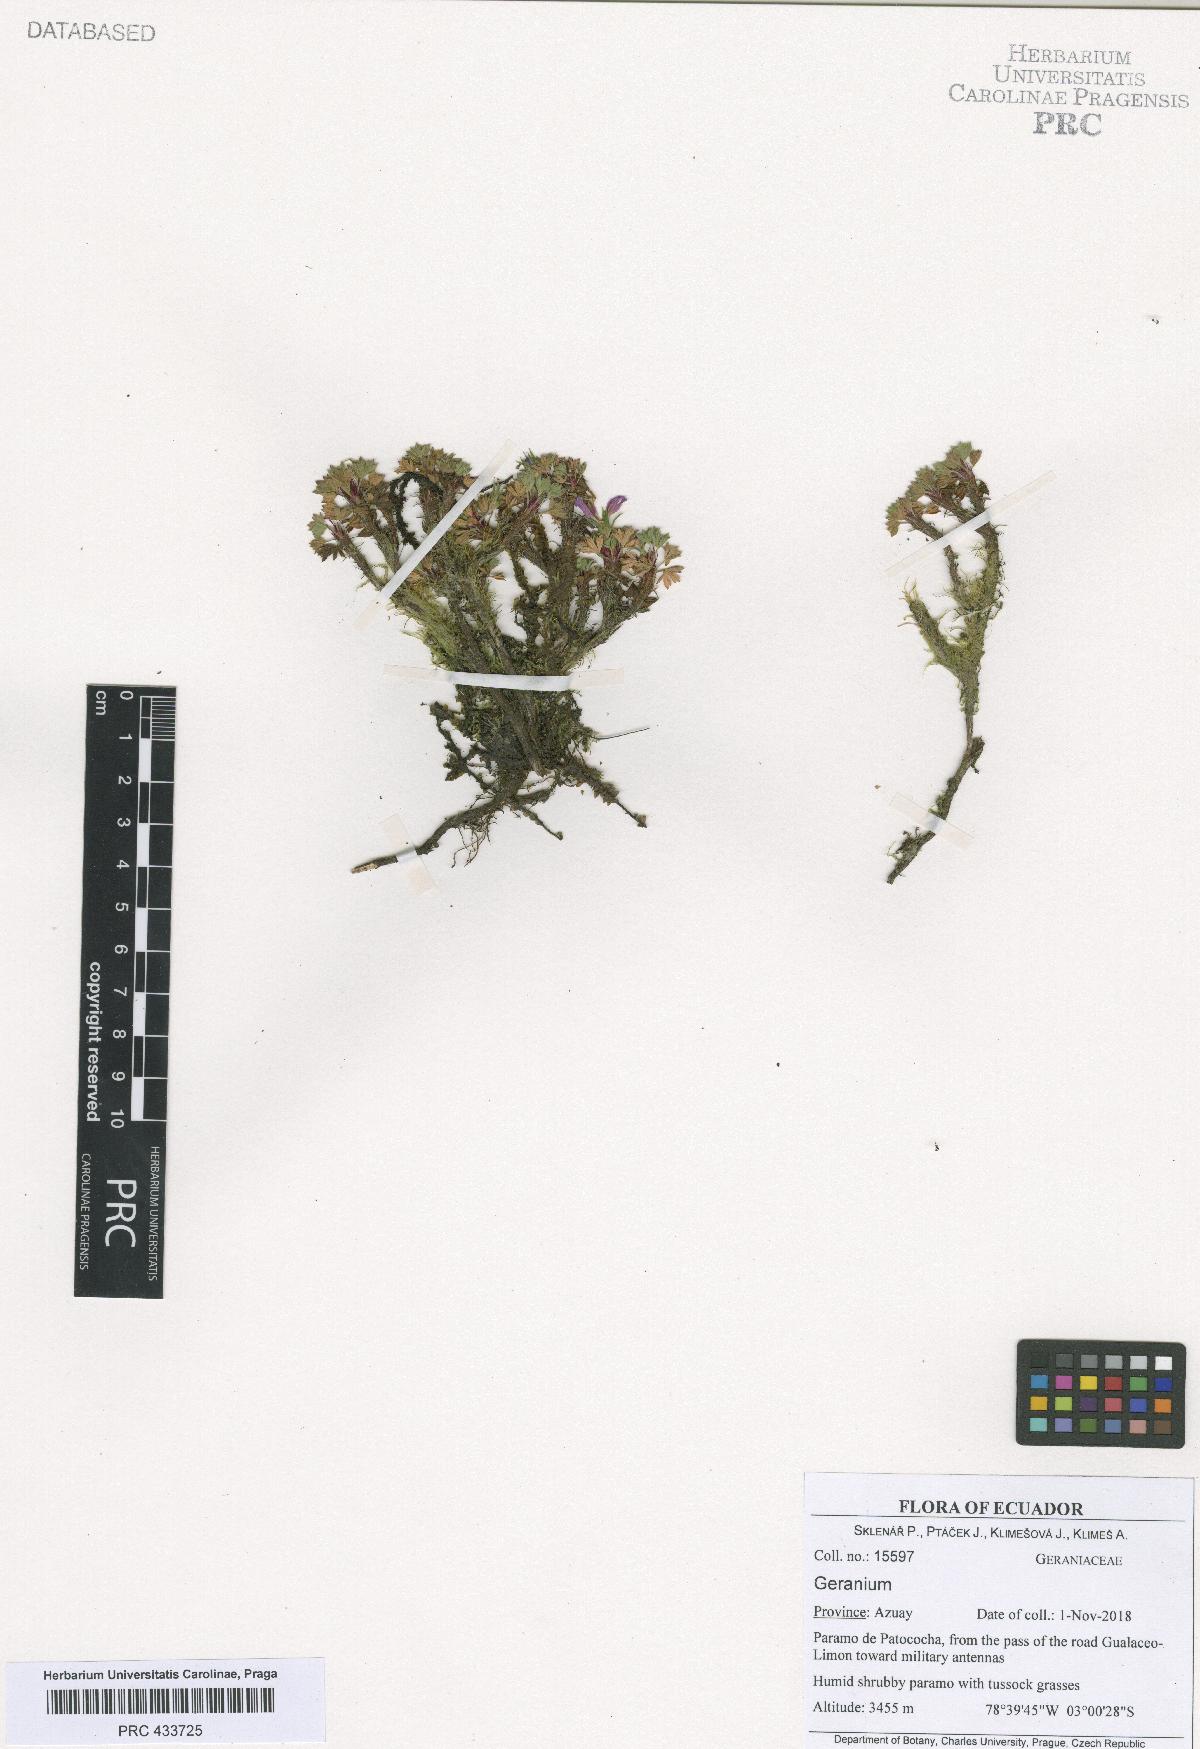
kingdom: Plantae
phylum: Tracheophyta
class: Magnoliopsida
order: Geraniales
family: Geraniaceae
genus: Geranium
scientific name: Geranium loxense
